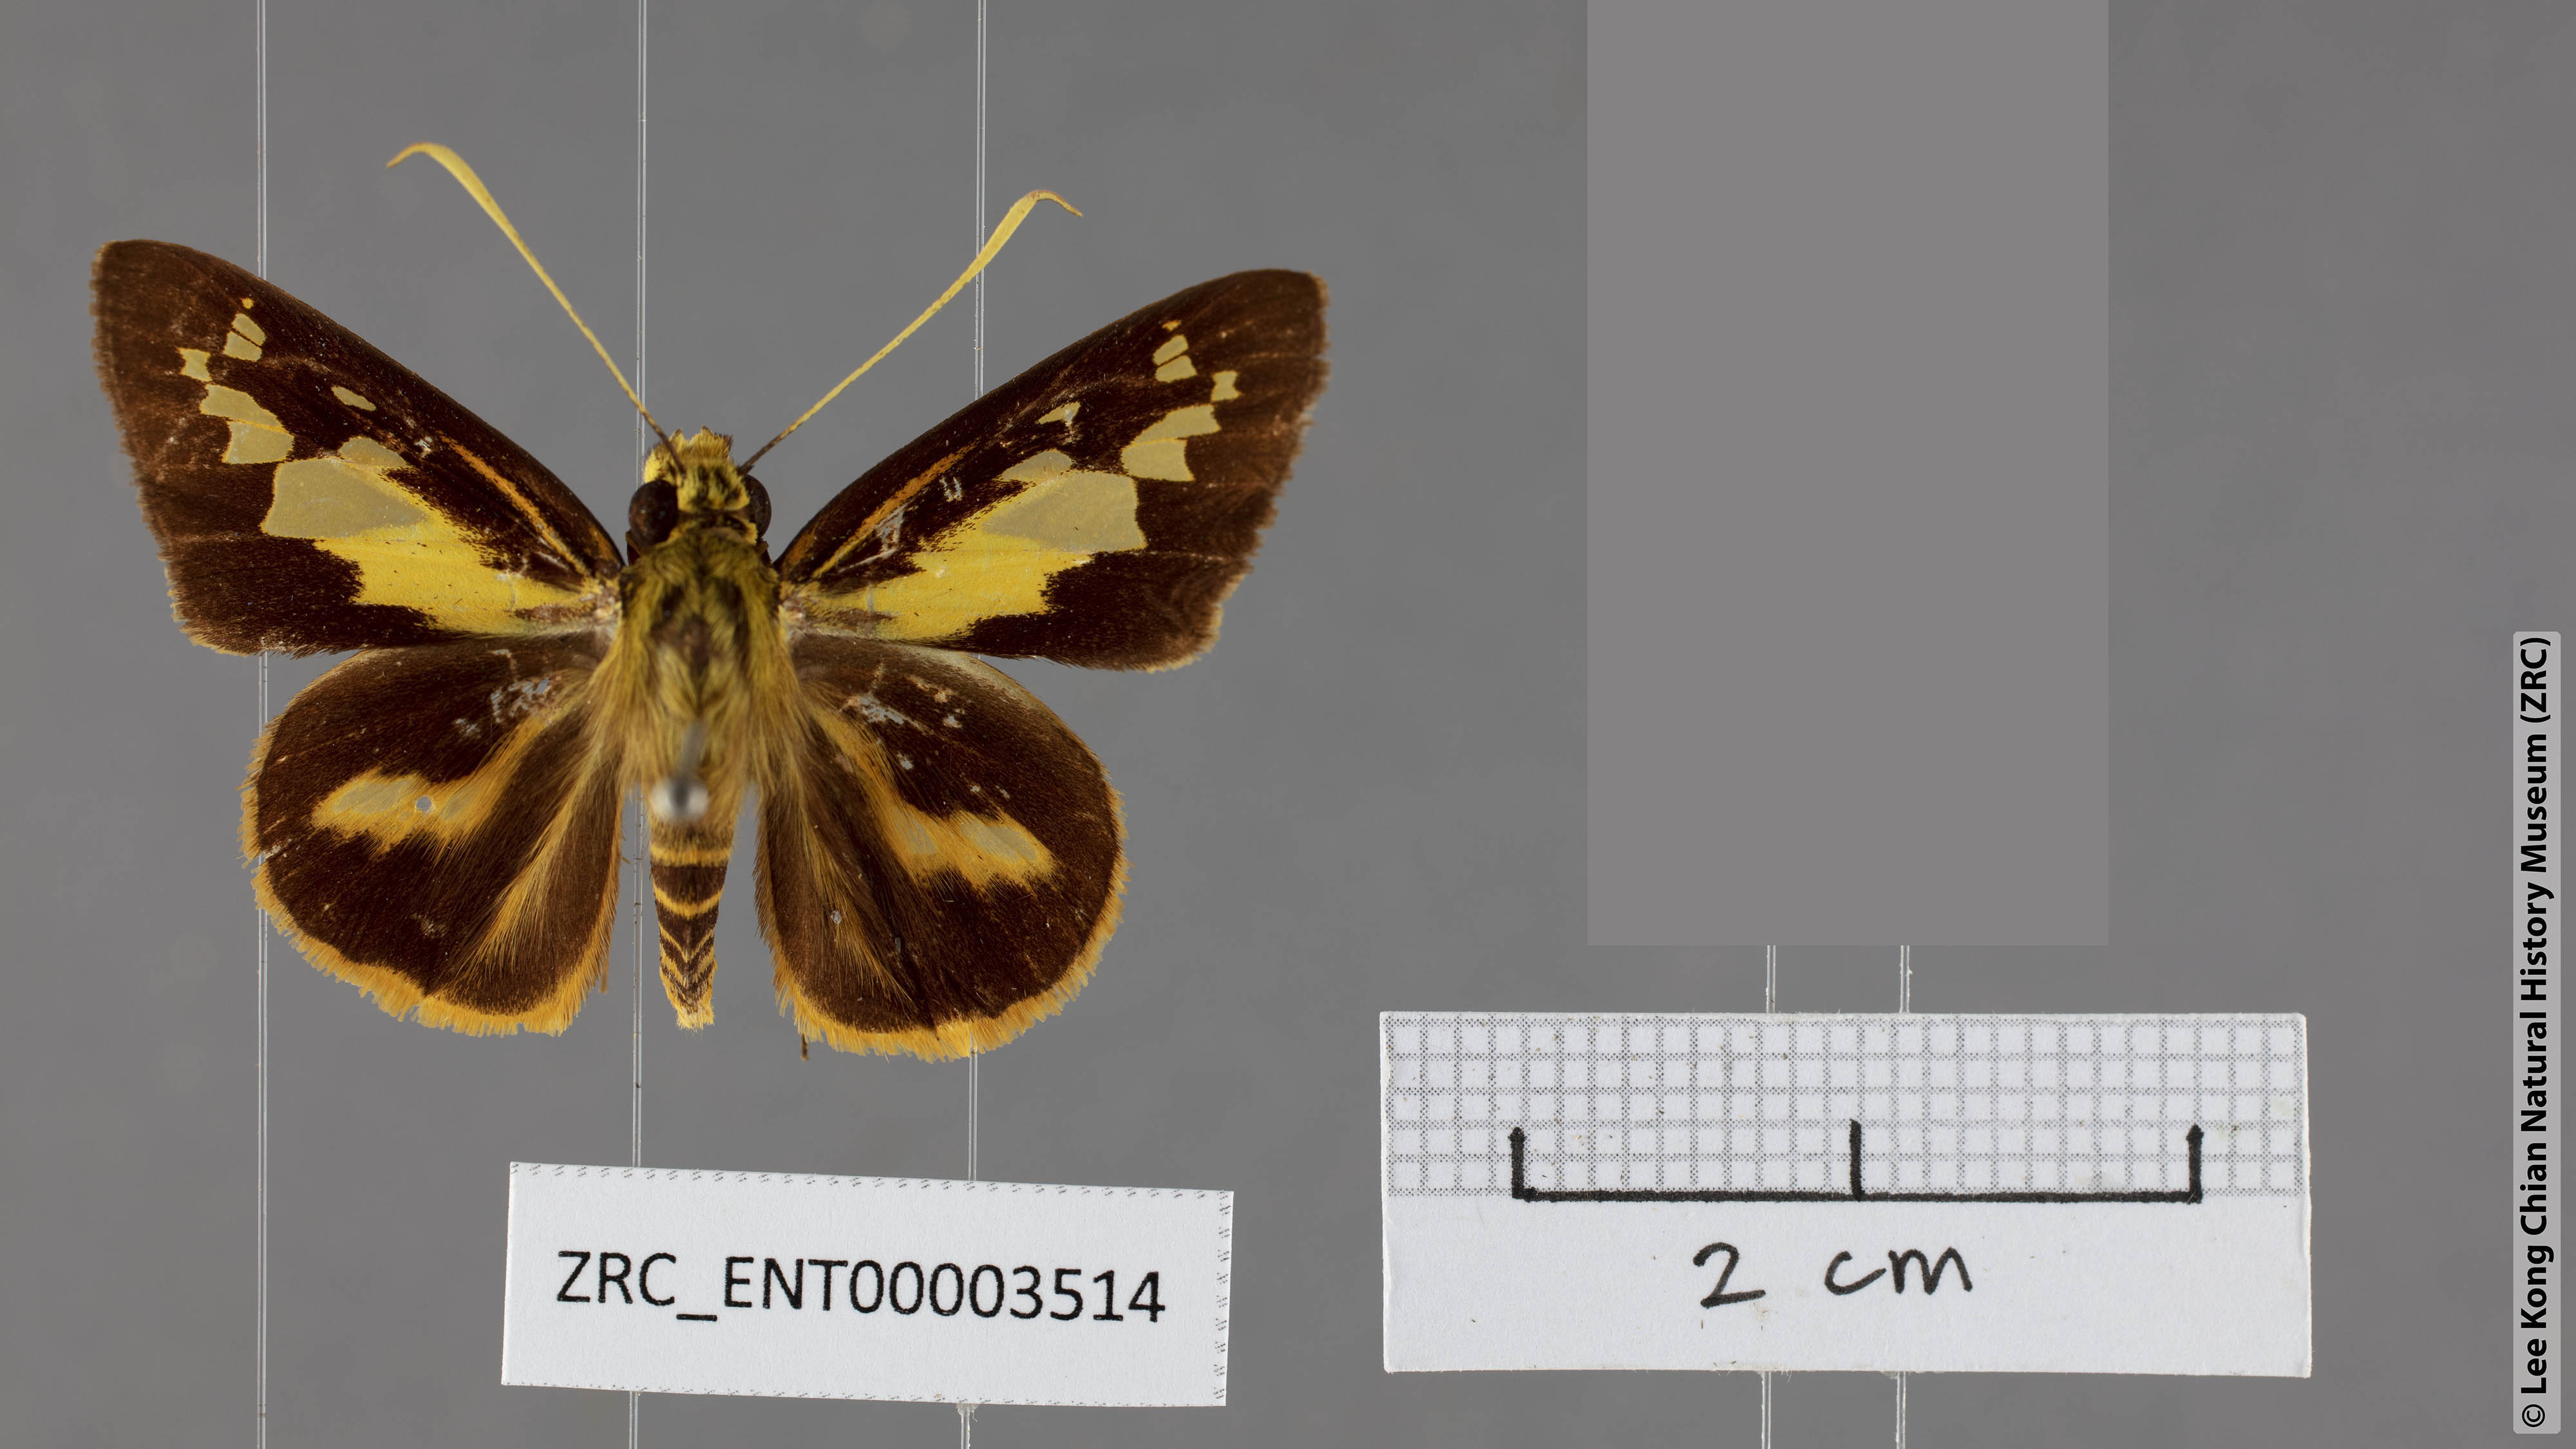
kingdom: Animalia
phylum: Arthropoda
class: Insecta
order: Lepidoptera
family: Hesperiidae
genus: Pyroneura
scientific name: Pyroneura niasana
